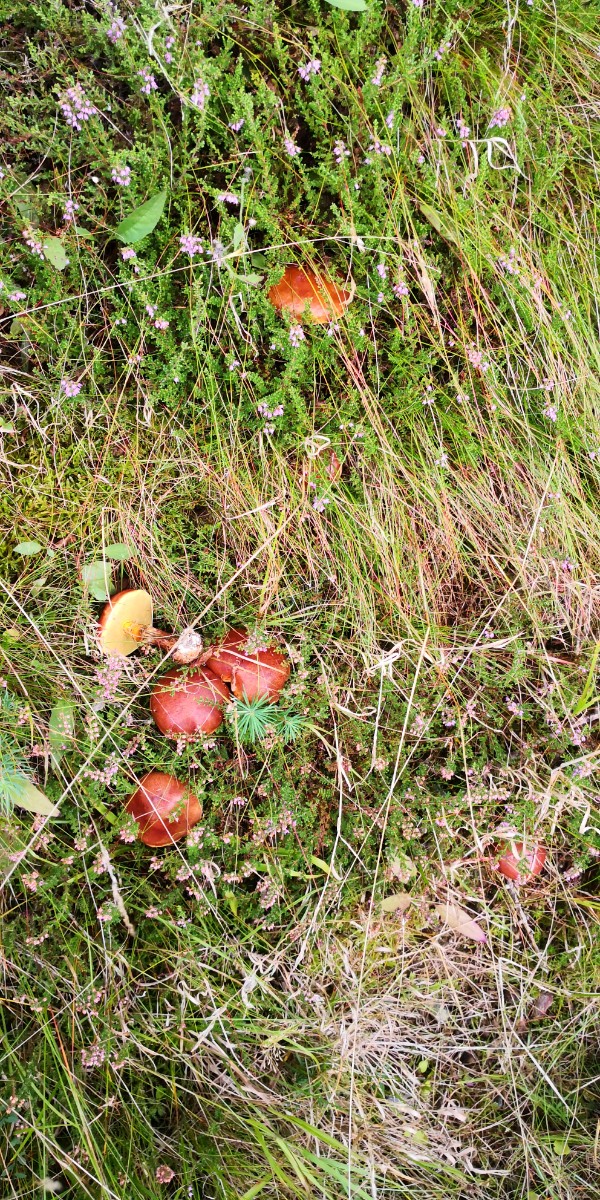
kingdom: Fungi
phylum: Basidiomycota
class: Agaricomycetes
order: Boletales
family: Suillaceae
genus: Suillus
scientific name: Suillus grevillei
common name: Larch bolete
